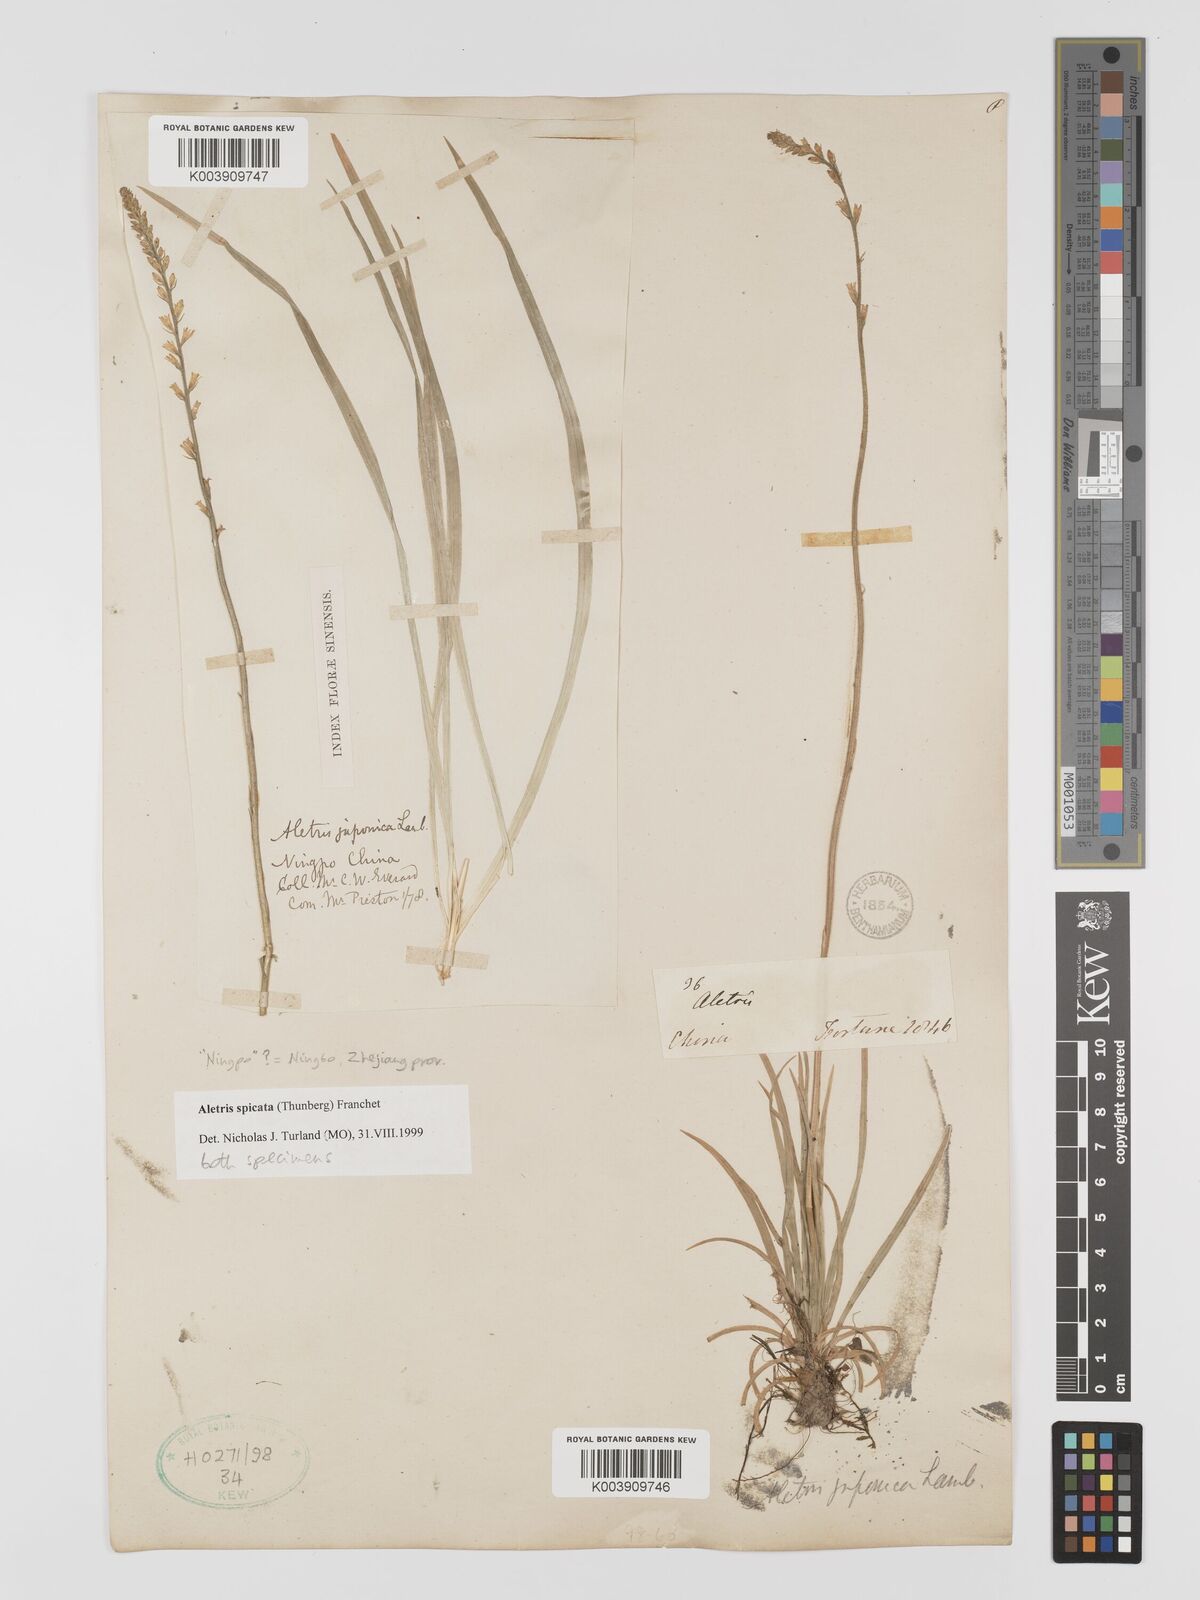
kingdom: Plantae
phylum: Tracheophyta
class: Liliopsida
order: Dioscoreales
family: Nartheciaceae
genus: Aletris
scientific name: Aletris spicata
